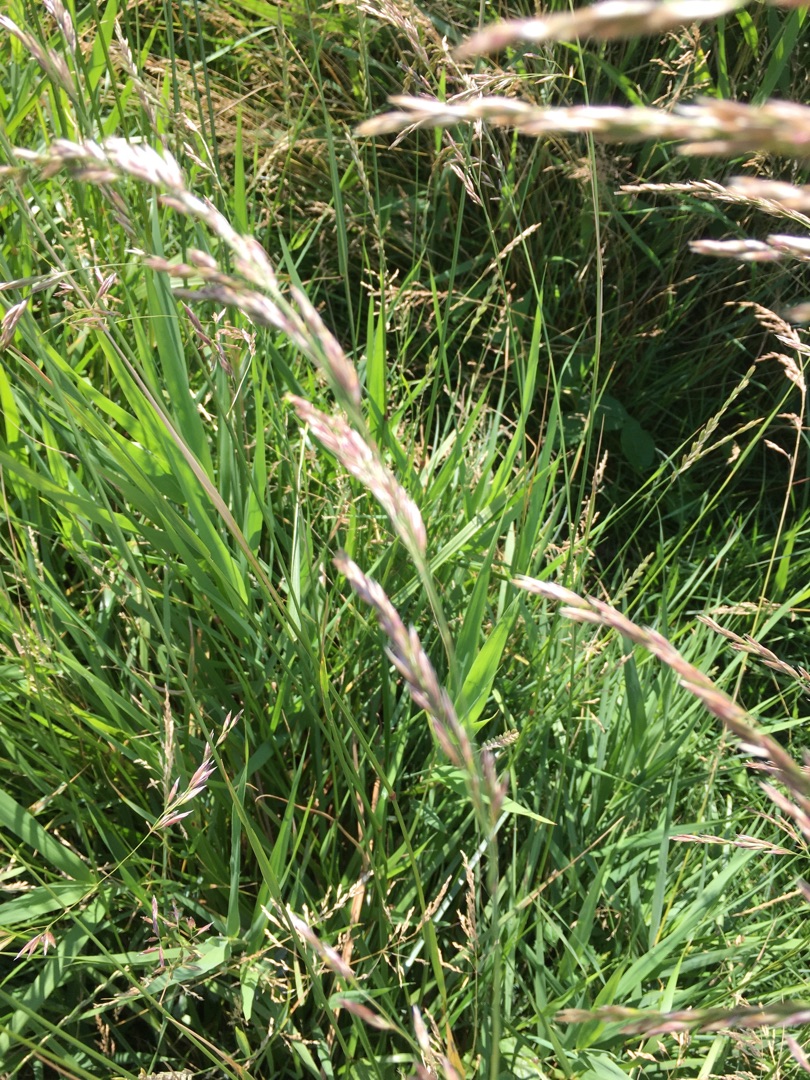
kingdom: Plantae
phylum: Tracheophyta
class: Liliopsida
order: Poales
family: Poaceae
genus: Lolium
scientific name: Lolium arundinaceum
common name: Strand-svingel
